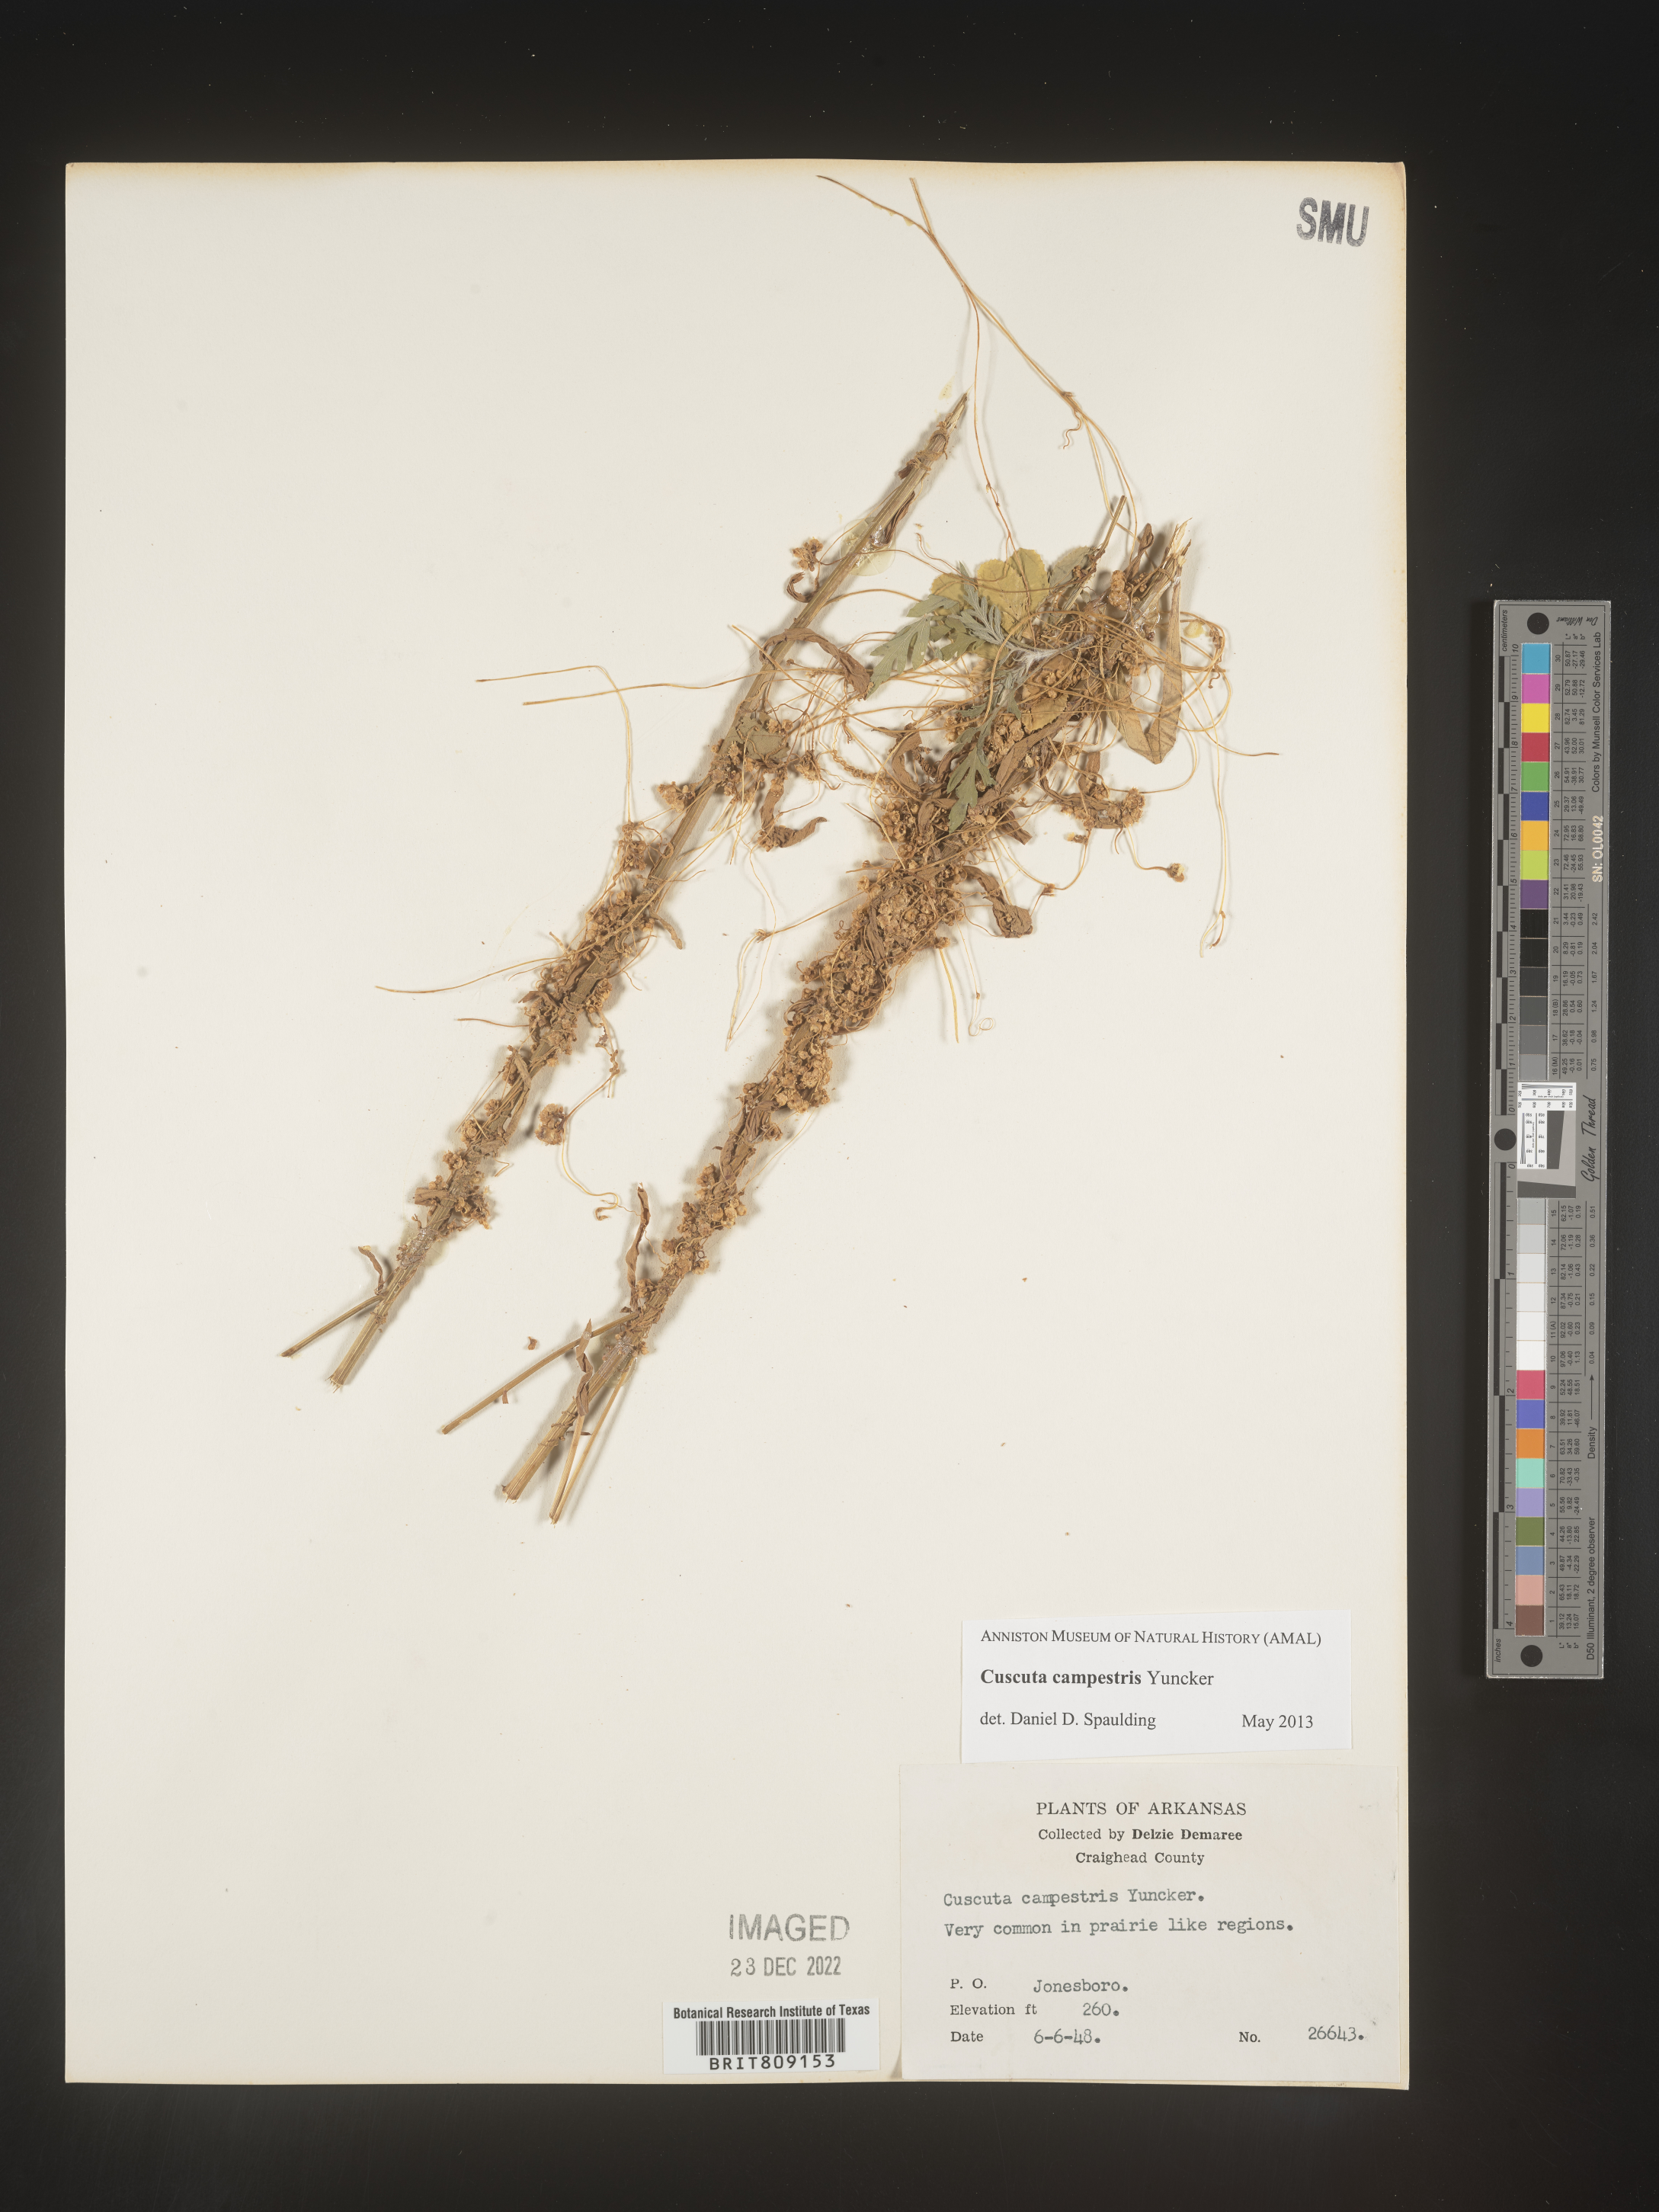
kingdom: Plantae
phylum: Tracheophyta
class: Magnoliopsida
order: Solanales
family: Convolvulaceae
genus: Cuscuta
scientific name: Cuscuta campestris
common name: Yellow dodder
